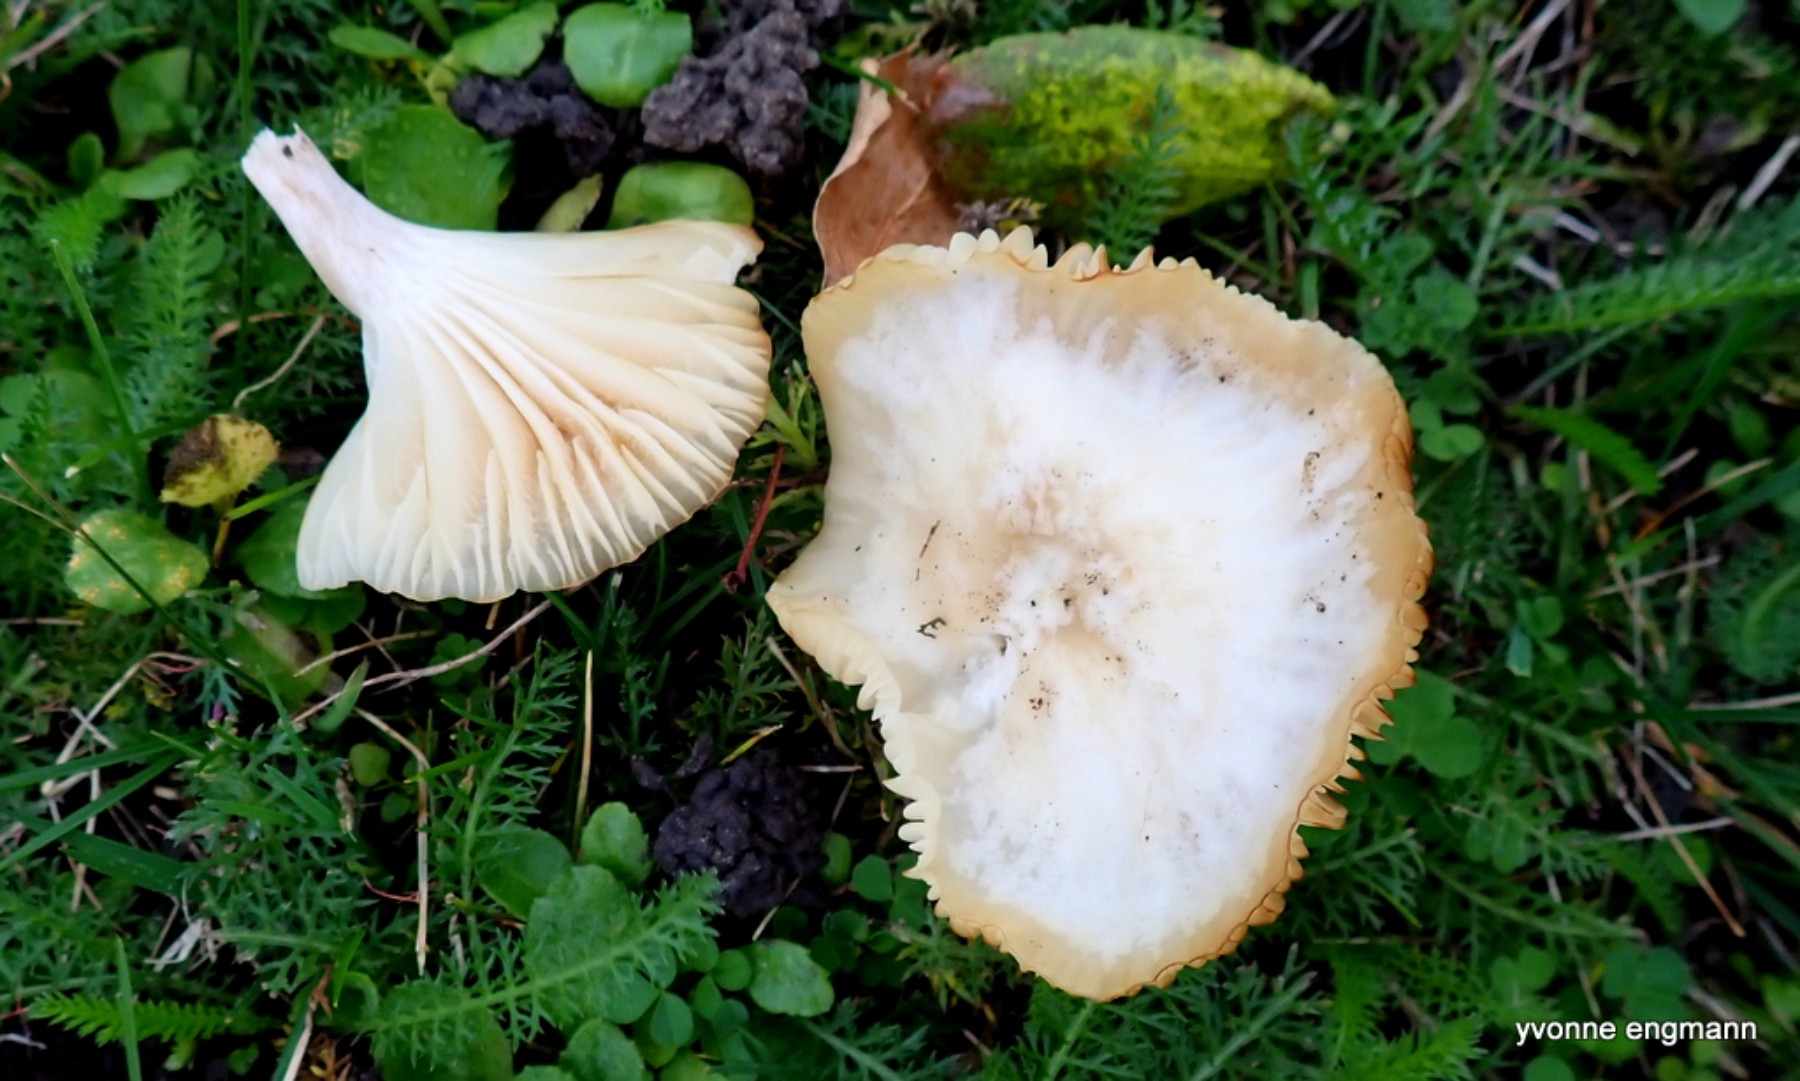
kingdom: Fungi
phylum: Basidiomycota
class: Agaricomycetes
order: Agaricales
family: Hygrophoraceae
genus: Cuphophyllus
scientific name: Cuphophyllus
